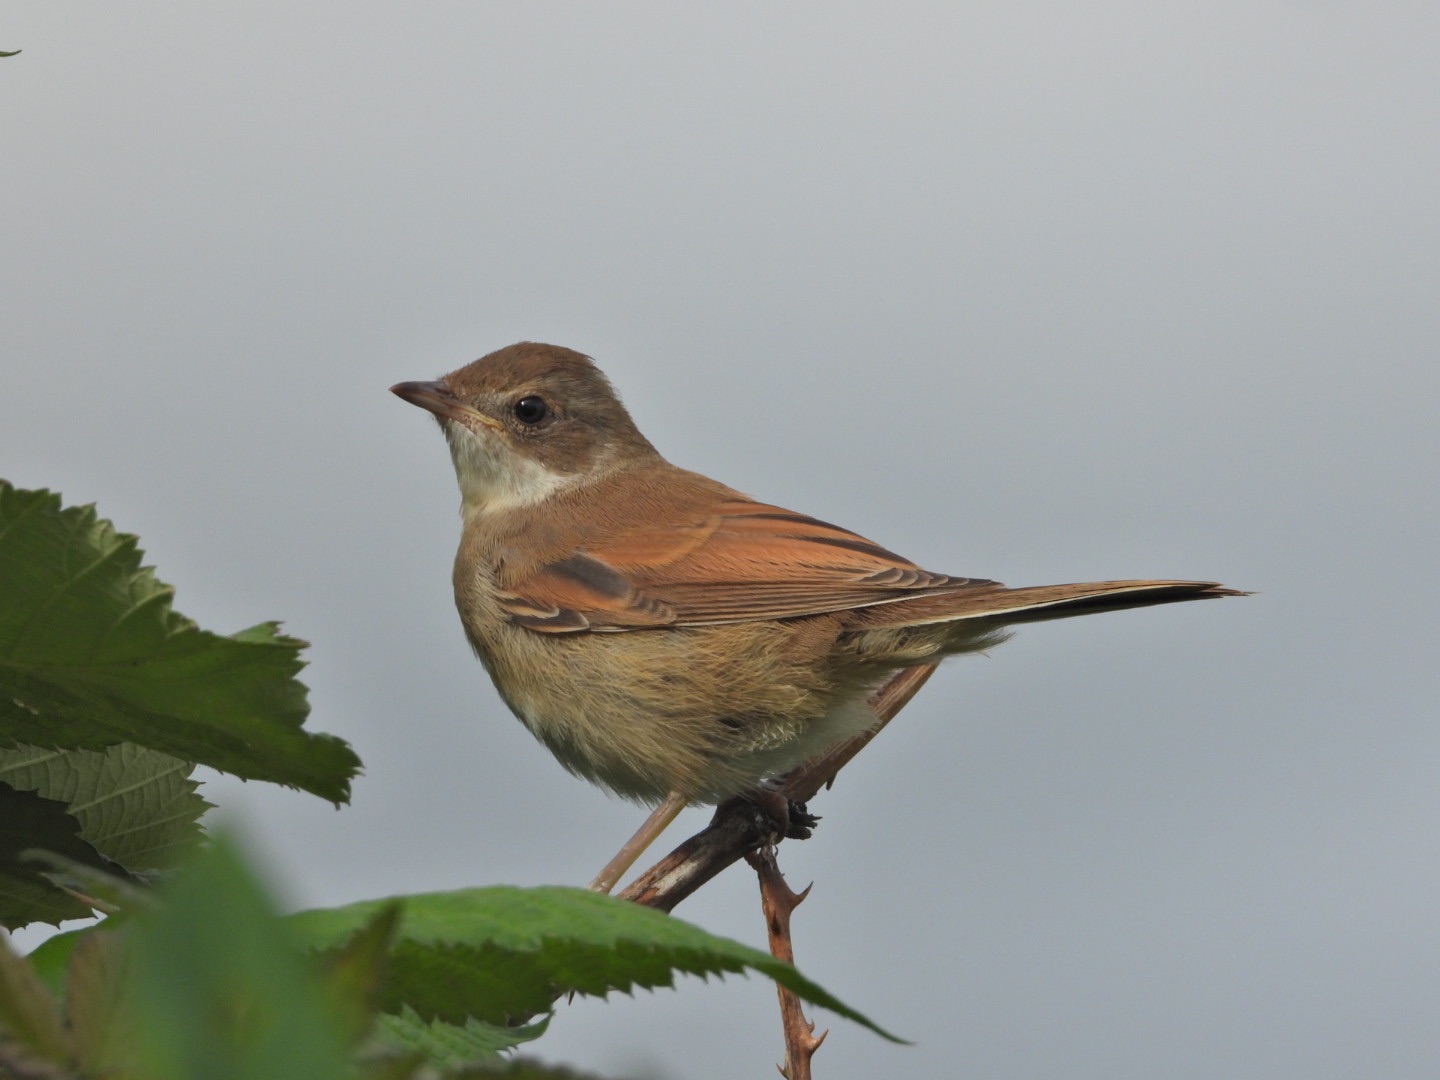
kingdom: Animalia
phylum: Chordata
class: Aves
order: Passeriformes
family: Sylviidae
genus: Sylvia
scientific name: Sylvia communis
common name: Tornsanger
